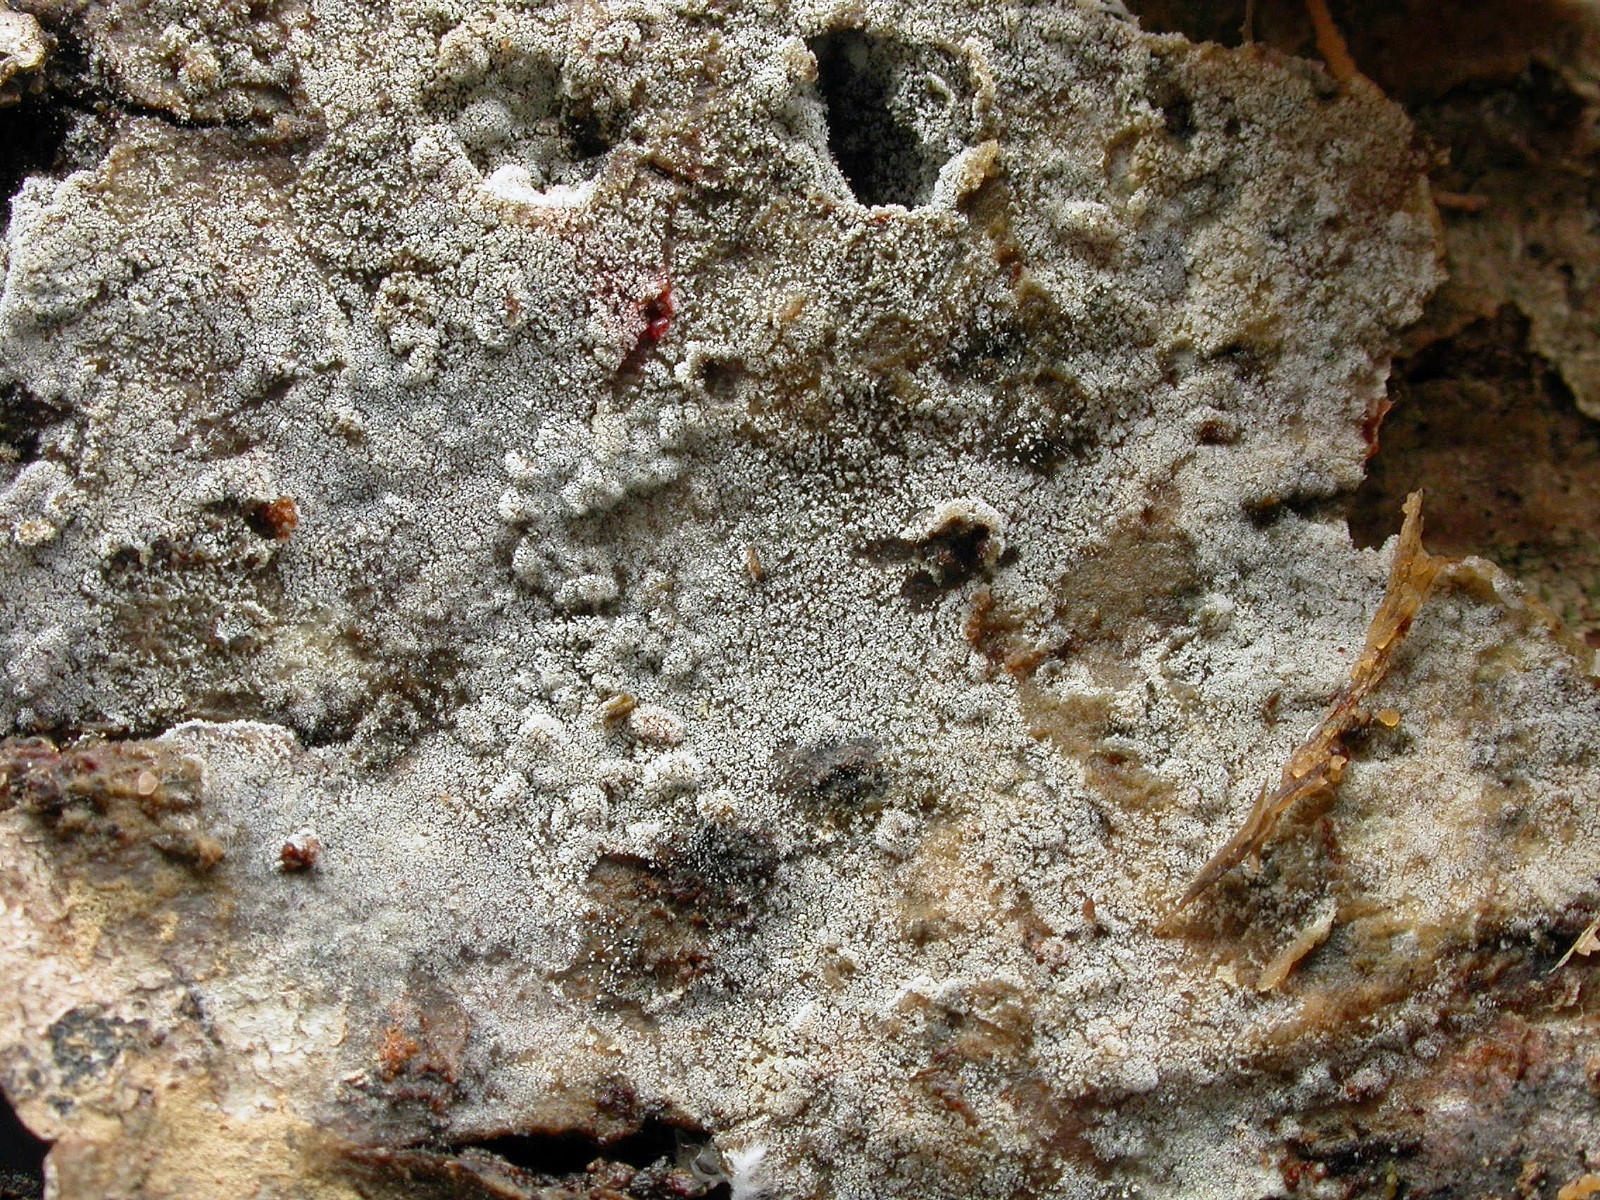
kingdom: Fungi
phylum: Basidiomycota
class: Agaricomycetes
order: Cantharellales
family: Botryobasidiaceae
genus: Botryobasidium
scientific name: Botryobasidium laeve
